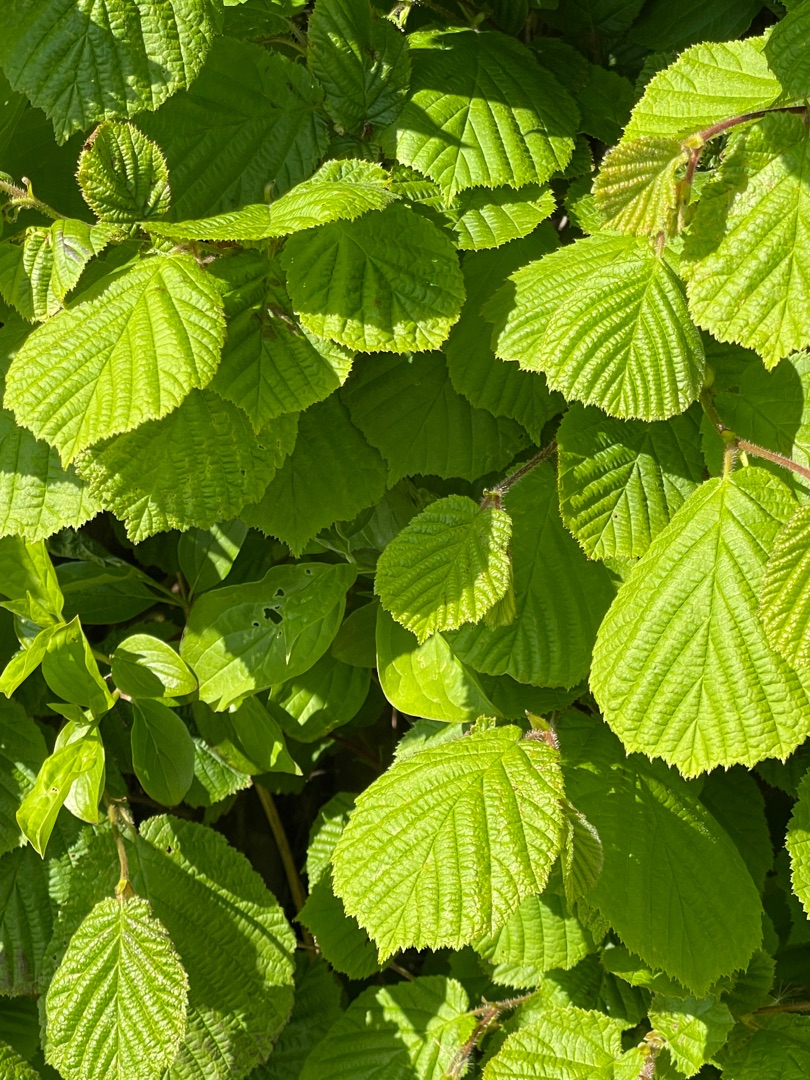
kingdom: Plantae
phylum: Tracheophyta
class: Magnoliopsida
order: Fagales
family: Betulaceae
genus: Corylus
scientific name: Corylus avellana
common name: Hassel
